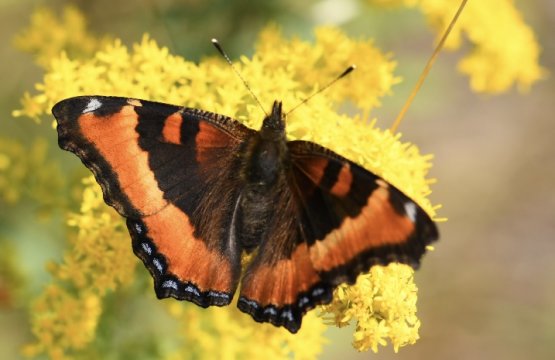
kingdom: Animalia
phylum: Arthropoda
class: Insecta
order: Lepidoptera
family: Nymphalidae
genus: Aglais
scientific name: Aglais milberti
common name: Milbert's Tortoiseshell
